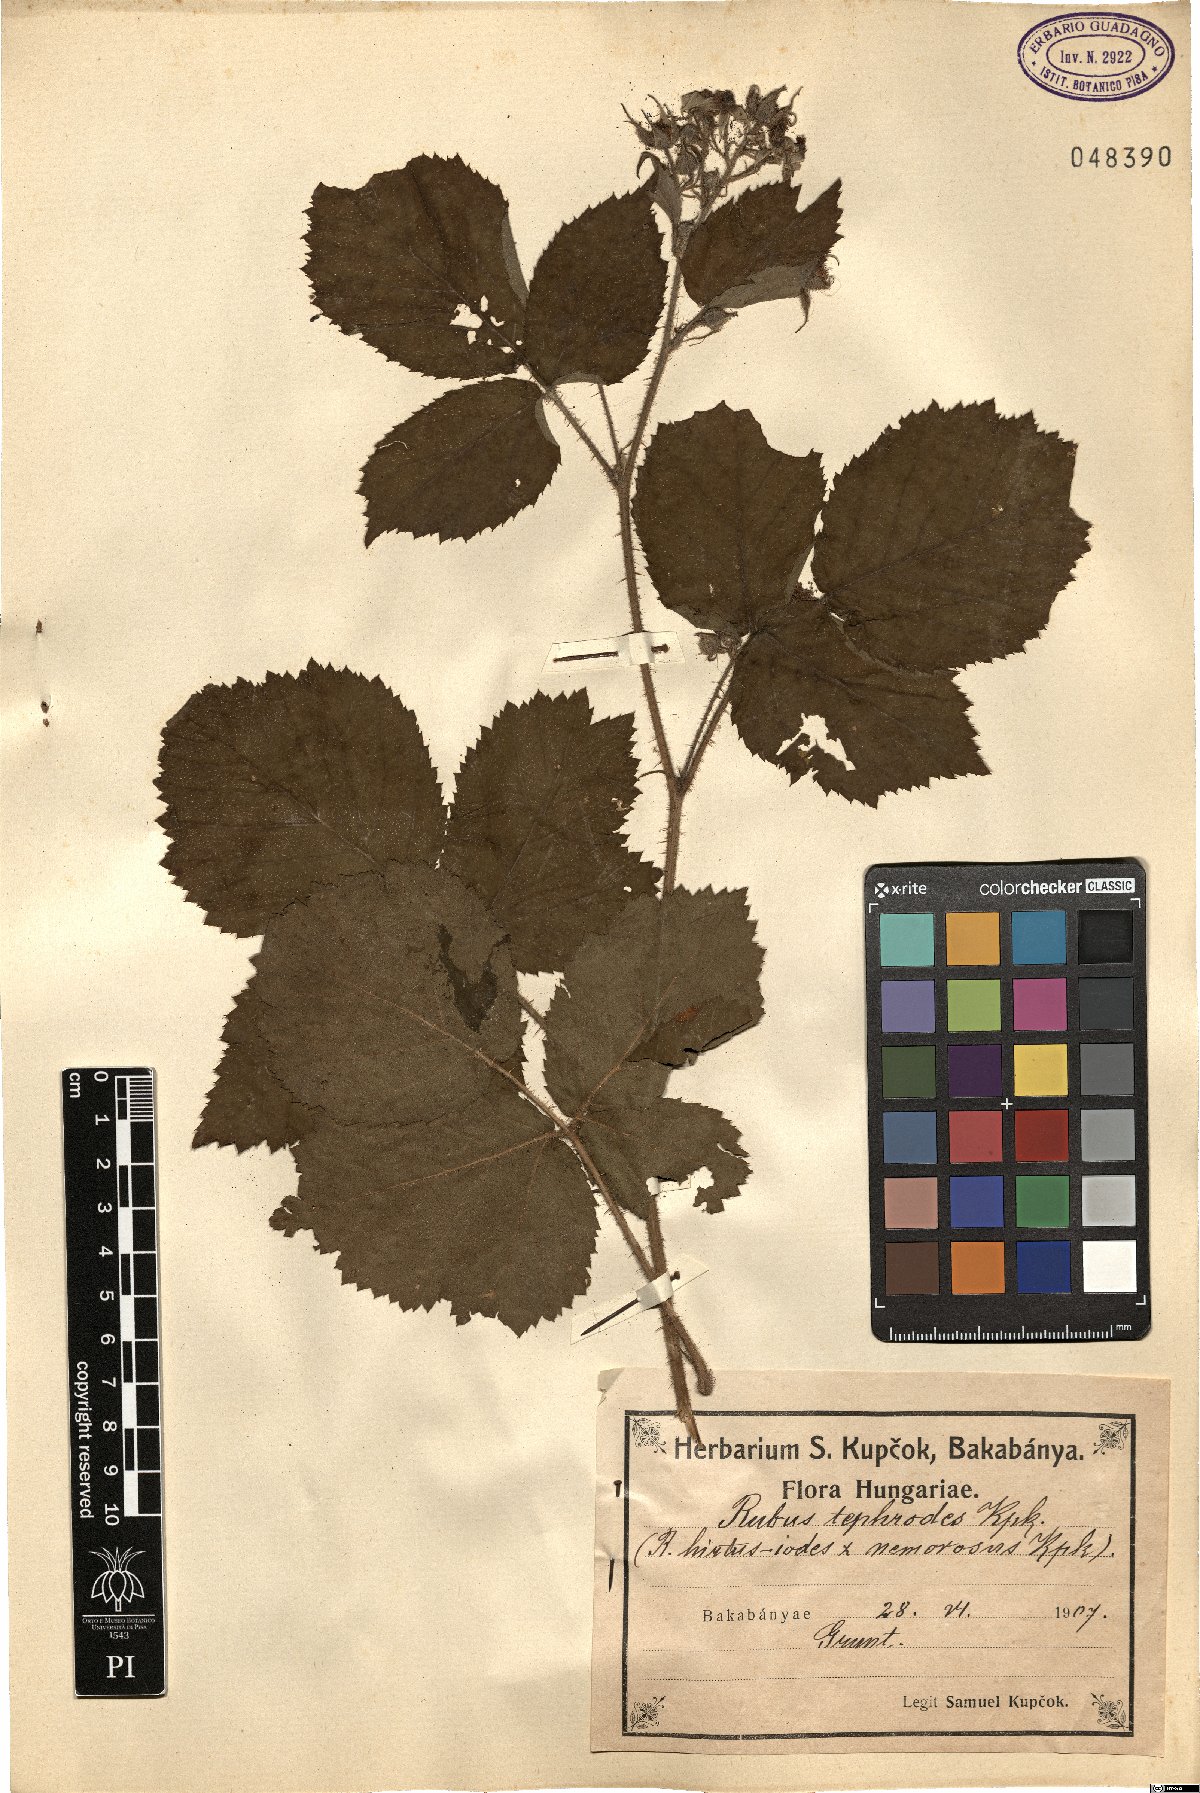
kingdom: Plantae
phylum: Tracheophyta
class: Magnoliopsida
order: Rosales
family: Rosaceae
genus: Rubus
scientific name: Rubus tephrodes
